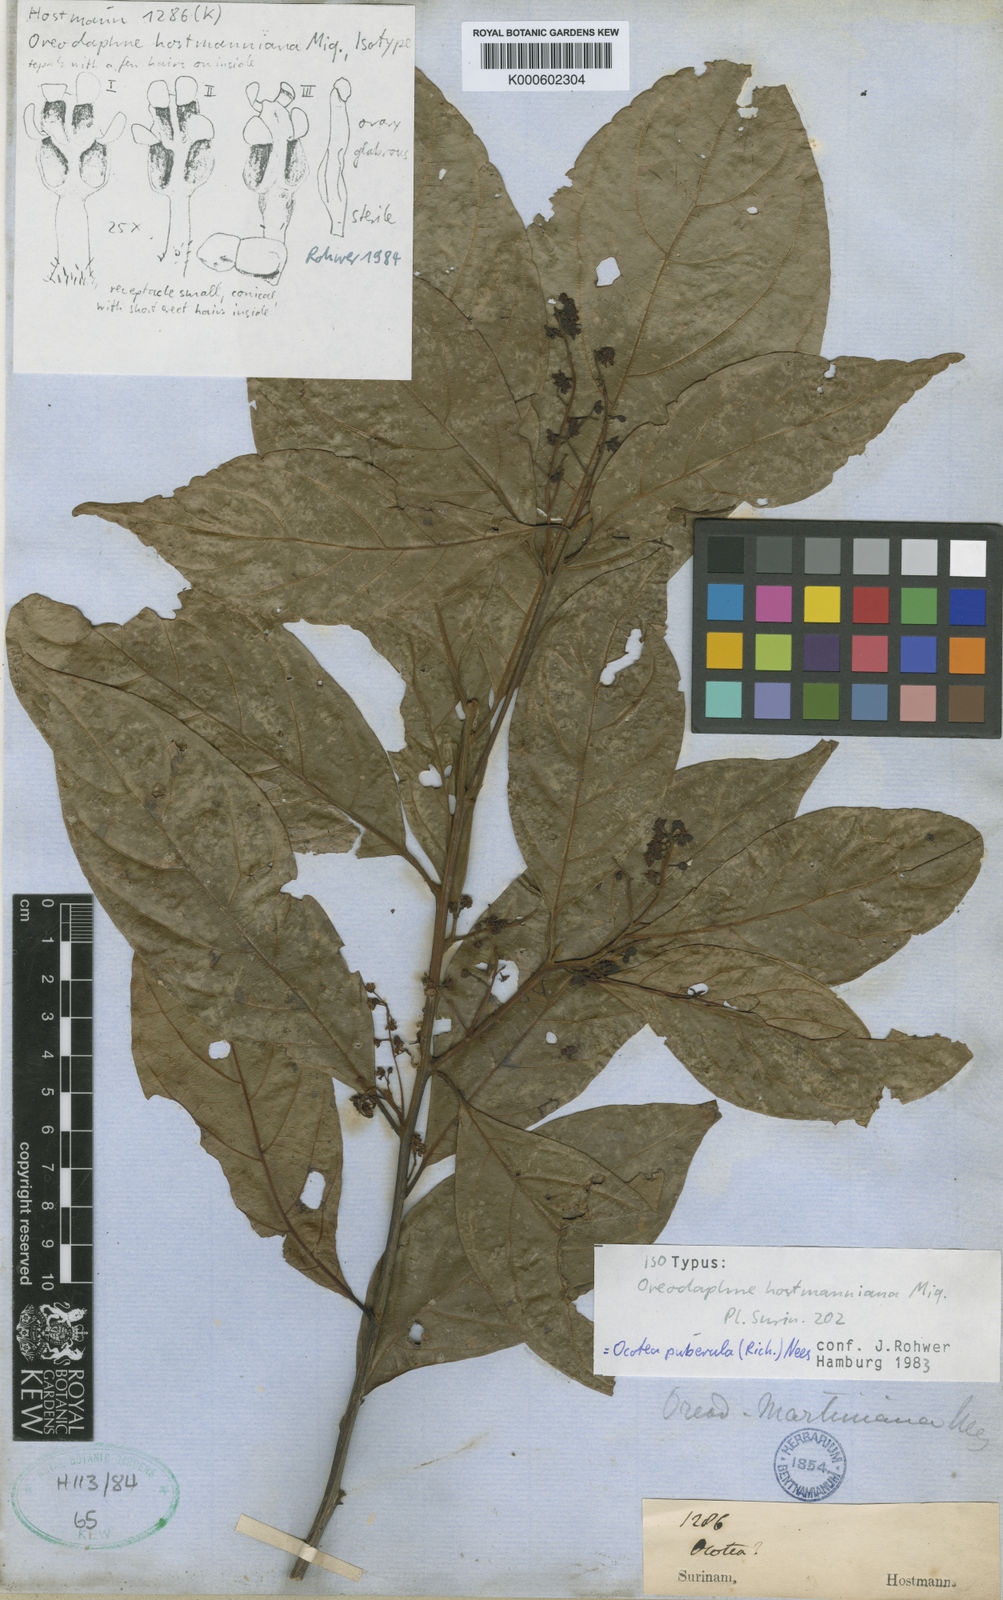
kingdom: Plantae
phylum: Tracheophyta
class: Magnoliopsida
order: Laurales
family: Lauraceae
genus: Ocotea
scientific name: Ocotea puberula
